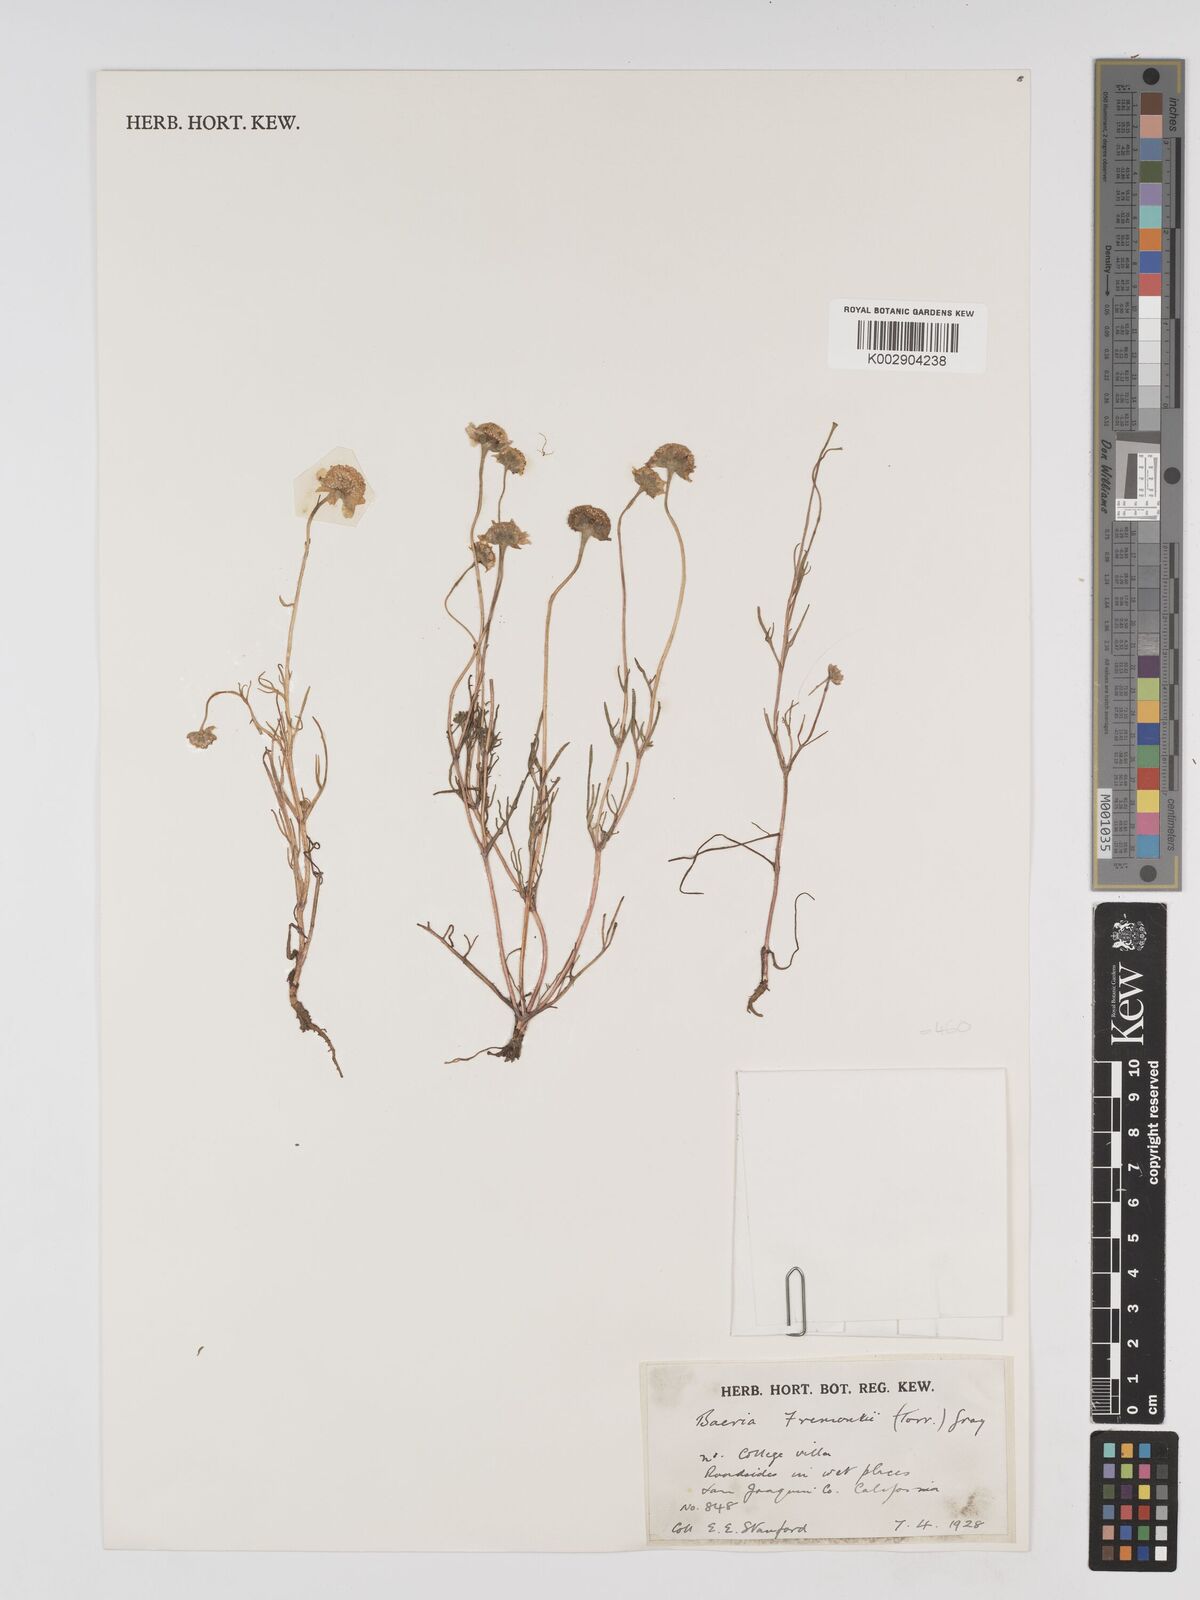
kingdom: Plantae
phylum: Tracheophyta
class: Magnoliopsida
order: Asterales
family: Asteraceae
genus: Lasthenia
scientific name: Lasthenia fremontii
